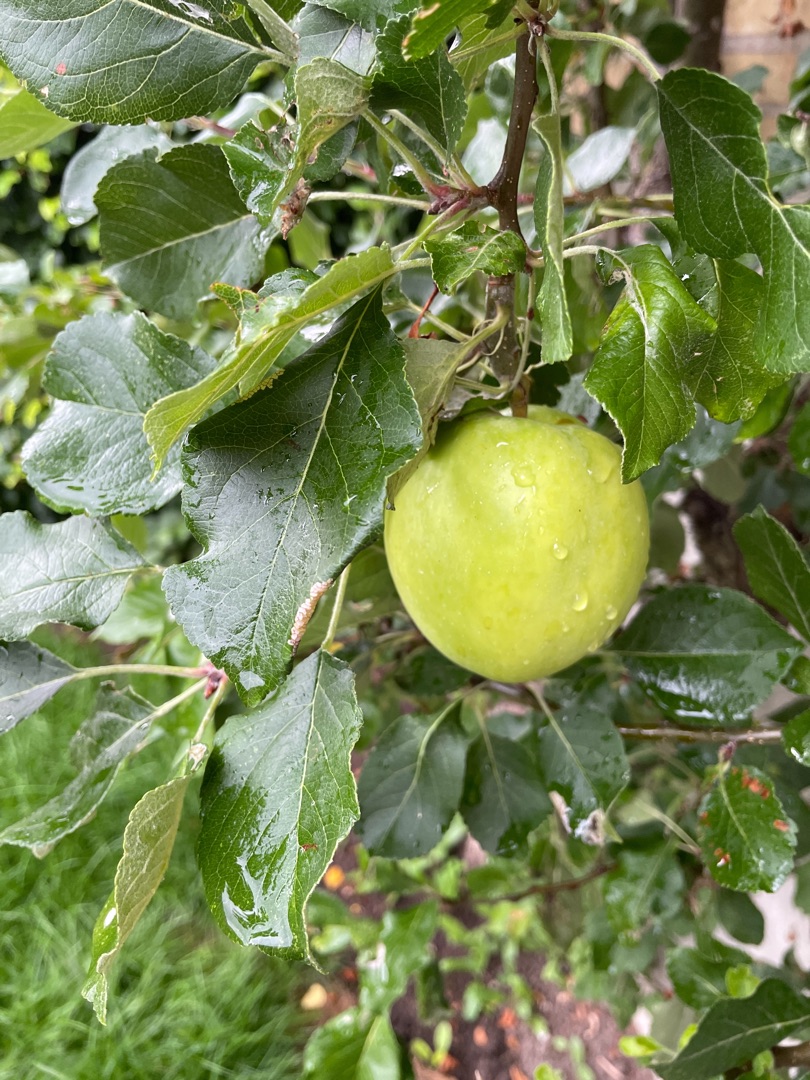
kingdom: Plantae
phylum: Tracheophyta
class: Magnoliopsida
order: Rosales
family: Rosaceae
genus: Malus
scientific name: Malus domestica
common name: Sød-æble
